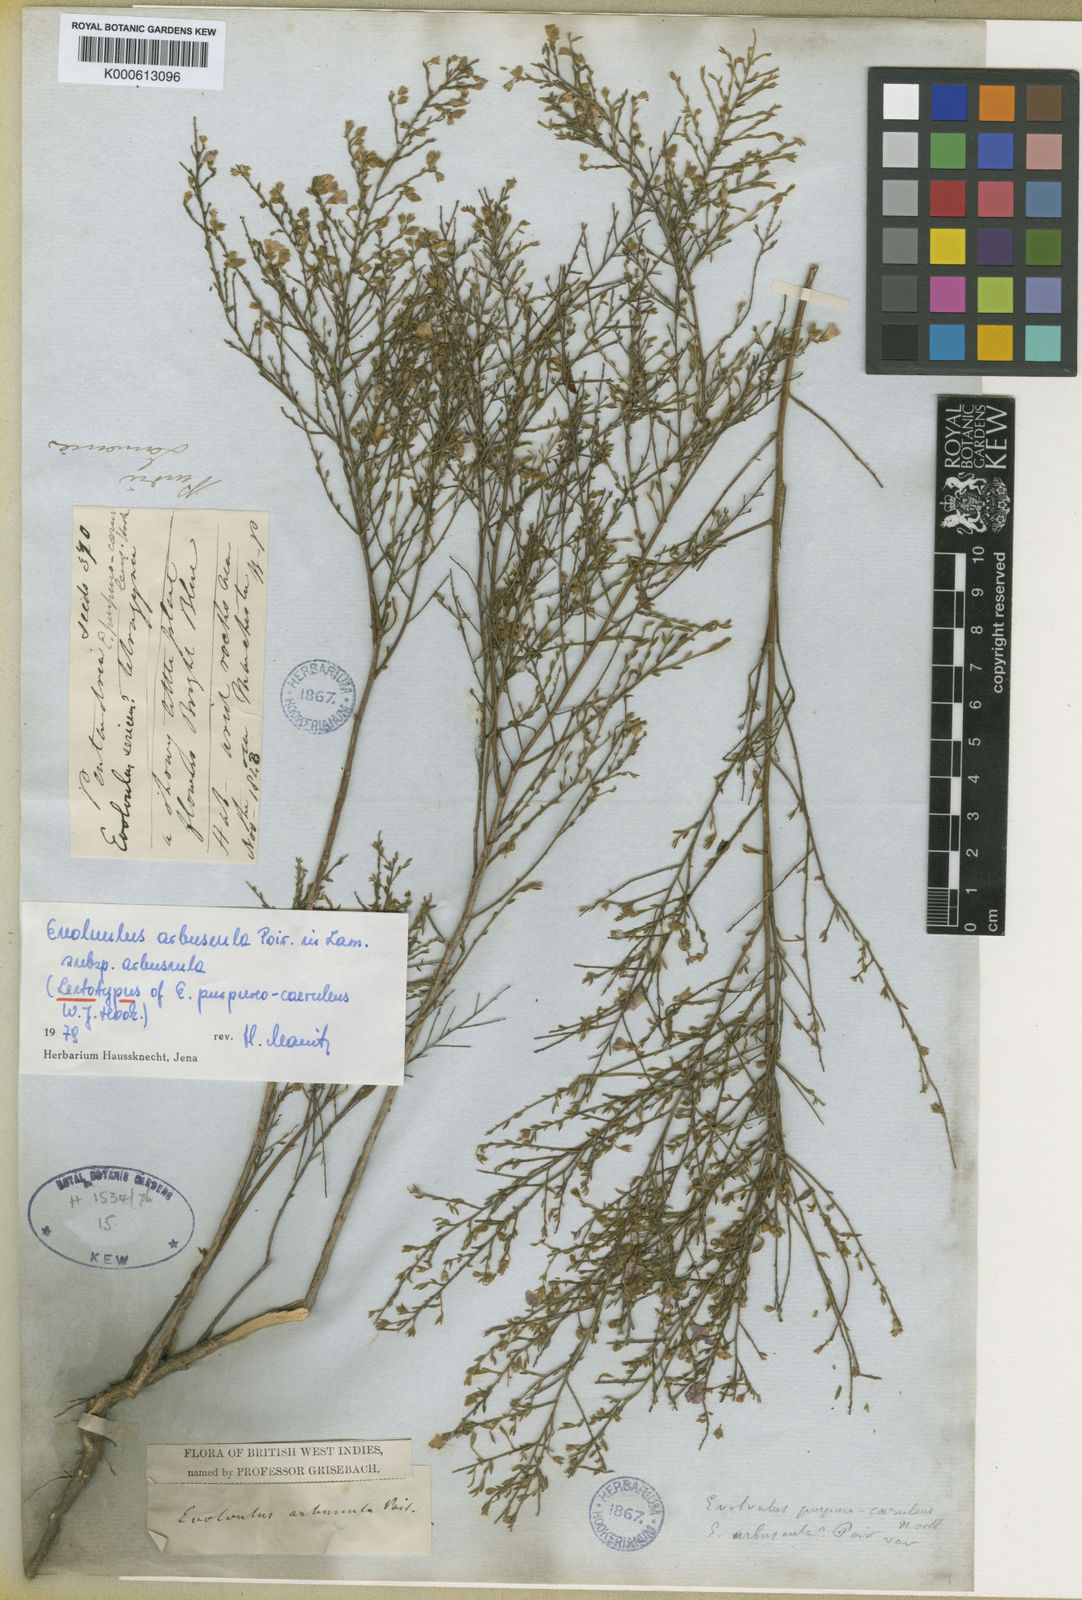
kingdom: Plantae
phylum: Tracheophyta
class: Magnoliopsida
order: Solanales
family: Convolvulaceae
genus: Evolvulus
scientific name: Evolvulus arbuscula
